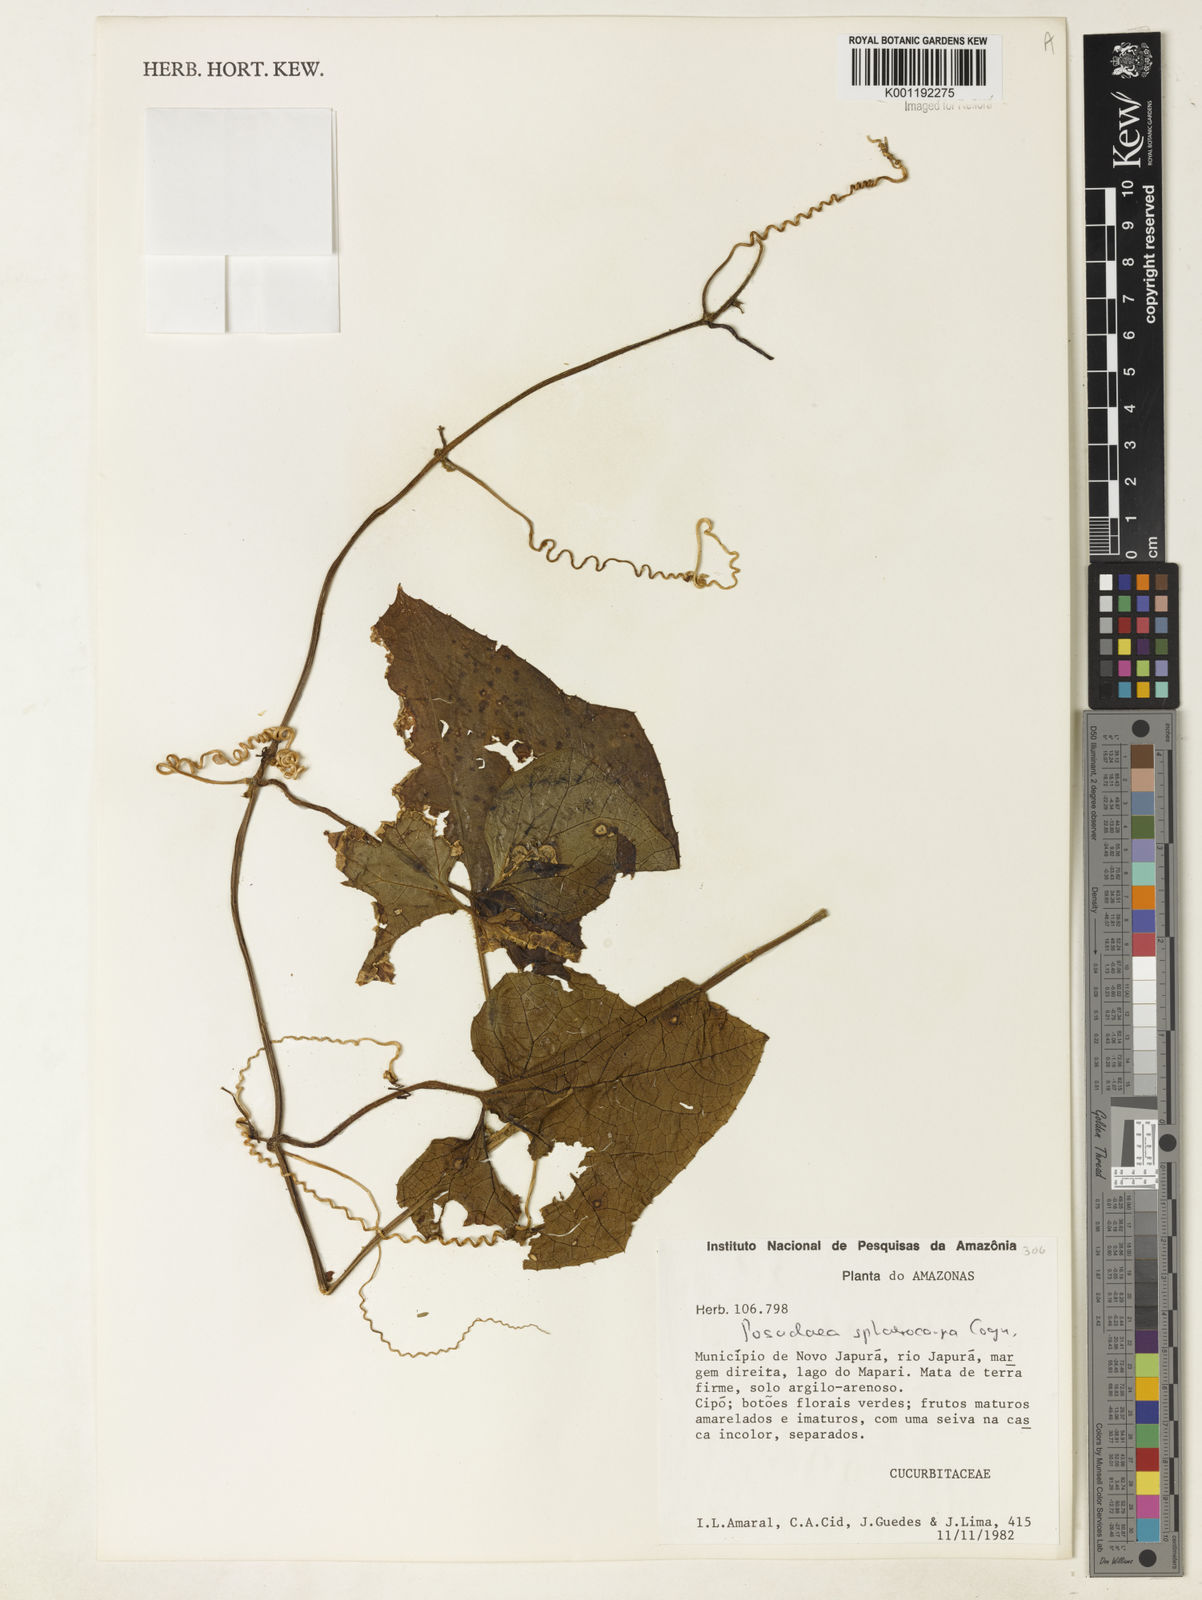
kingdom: Plantae
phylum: Tracheophyta
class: Magnoliopsida
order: Cucurbitales
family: Cucurbitaceae
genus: Melothria
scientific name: Melothria sphaerocarpa
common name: Egusi-itoo
